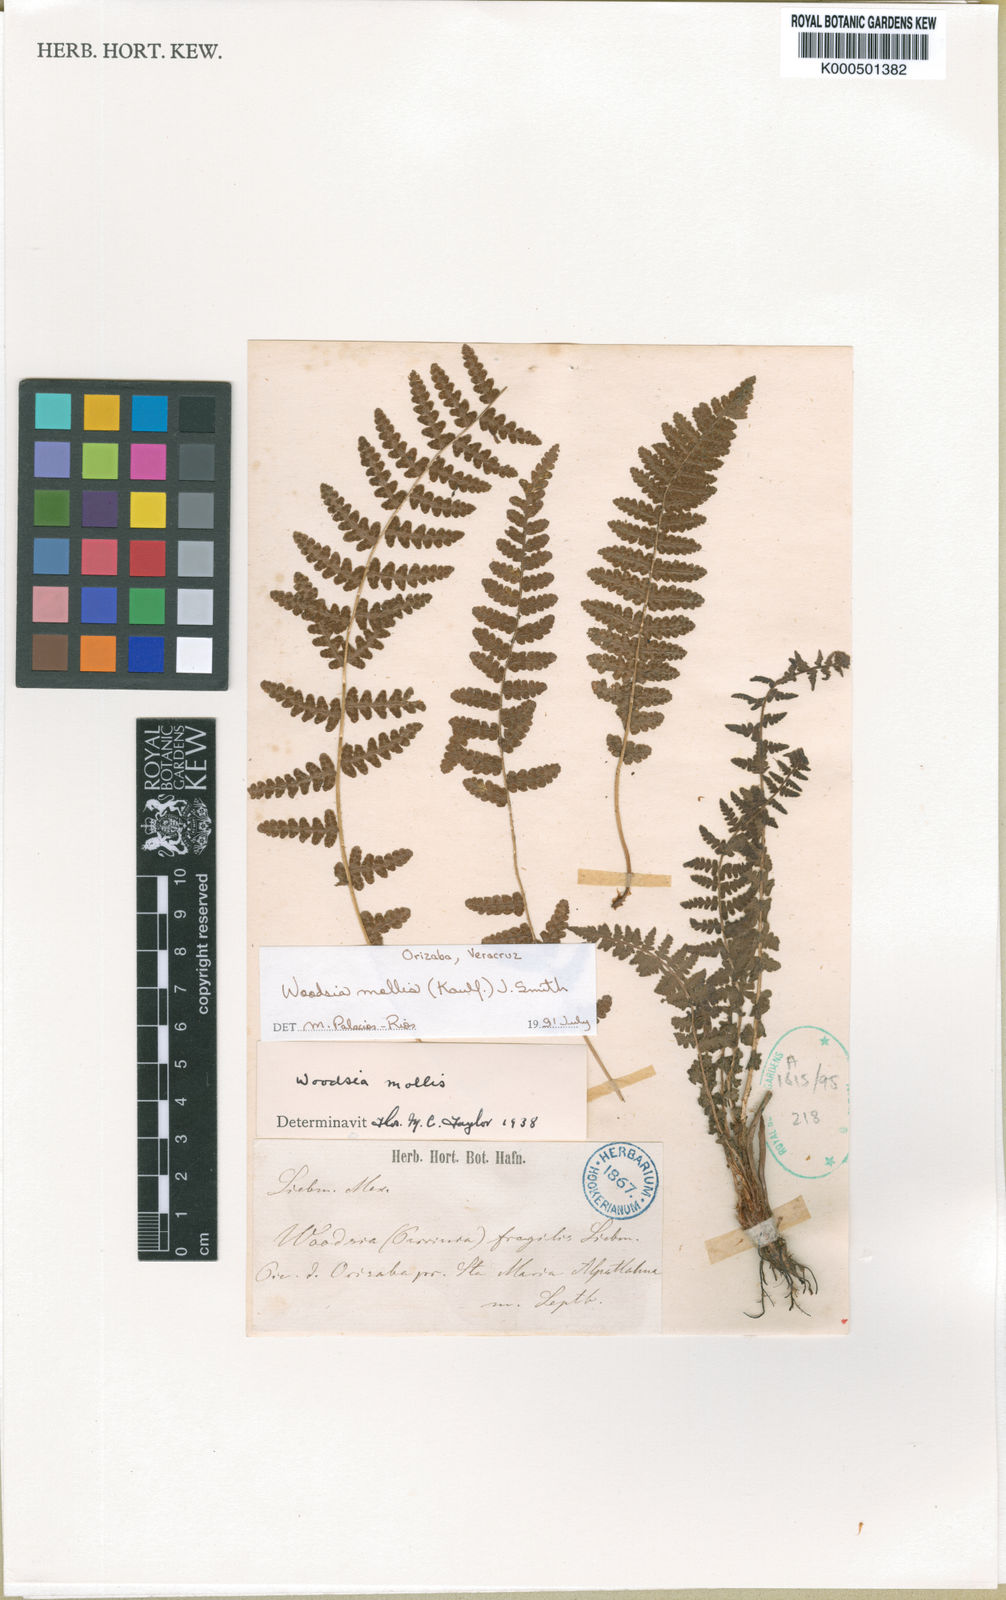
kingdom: Plantae
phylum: Tracheophyta
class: Polypodiopsida
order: Polypodiales
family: Woodsiaceae
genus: Physematium
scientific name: Physematium molle
